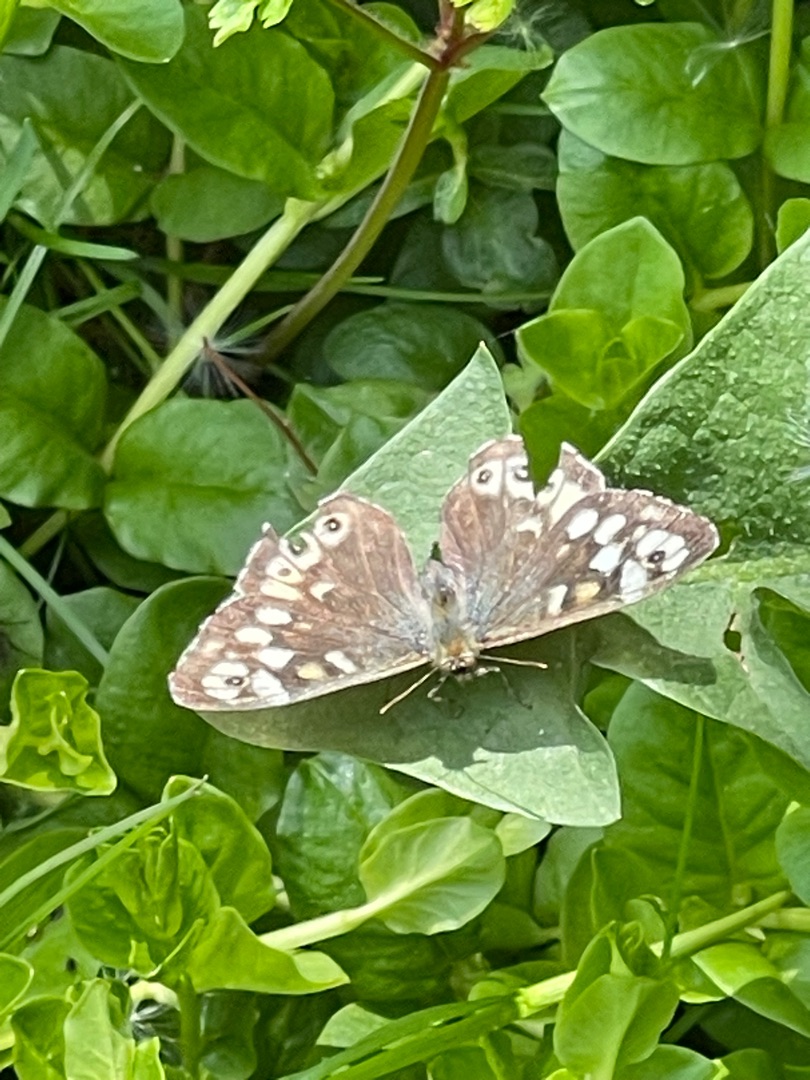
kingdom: Animalia
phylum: Arthropoda
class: Insecta
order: Lepidoptera
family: Nymphalidae
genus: Pararge
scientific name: Pararge aegeria
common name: Skovrandøje
